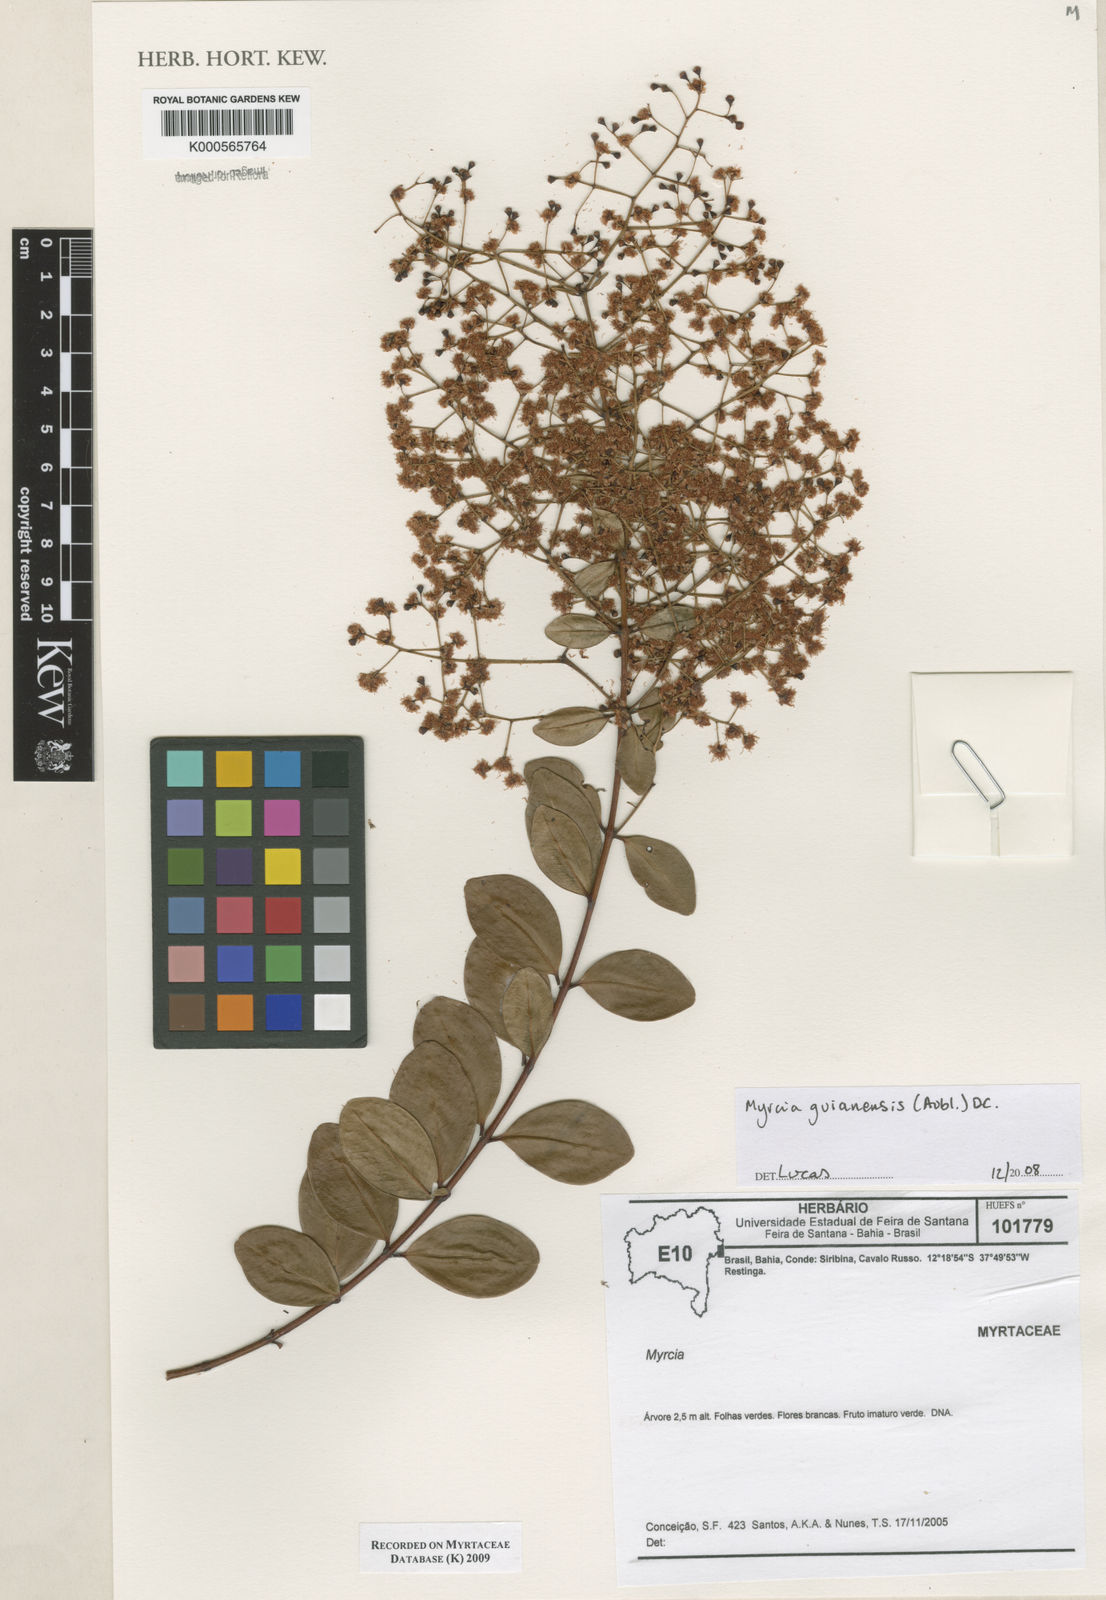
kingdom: Plantae
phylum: Tracheophyta
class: Magnoliopsida
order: Myrtales
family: Myrtaceae
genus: Myrcia
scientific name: Myrcia guianensis
